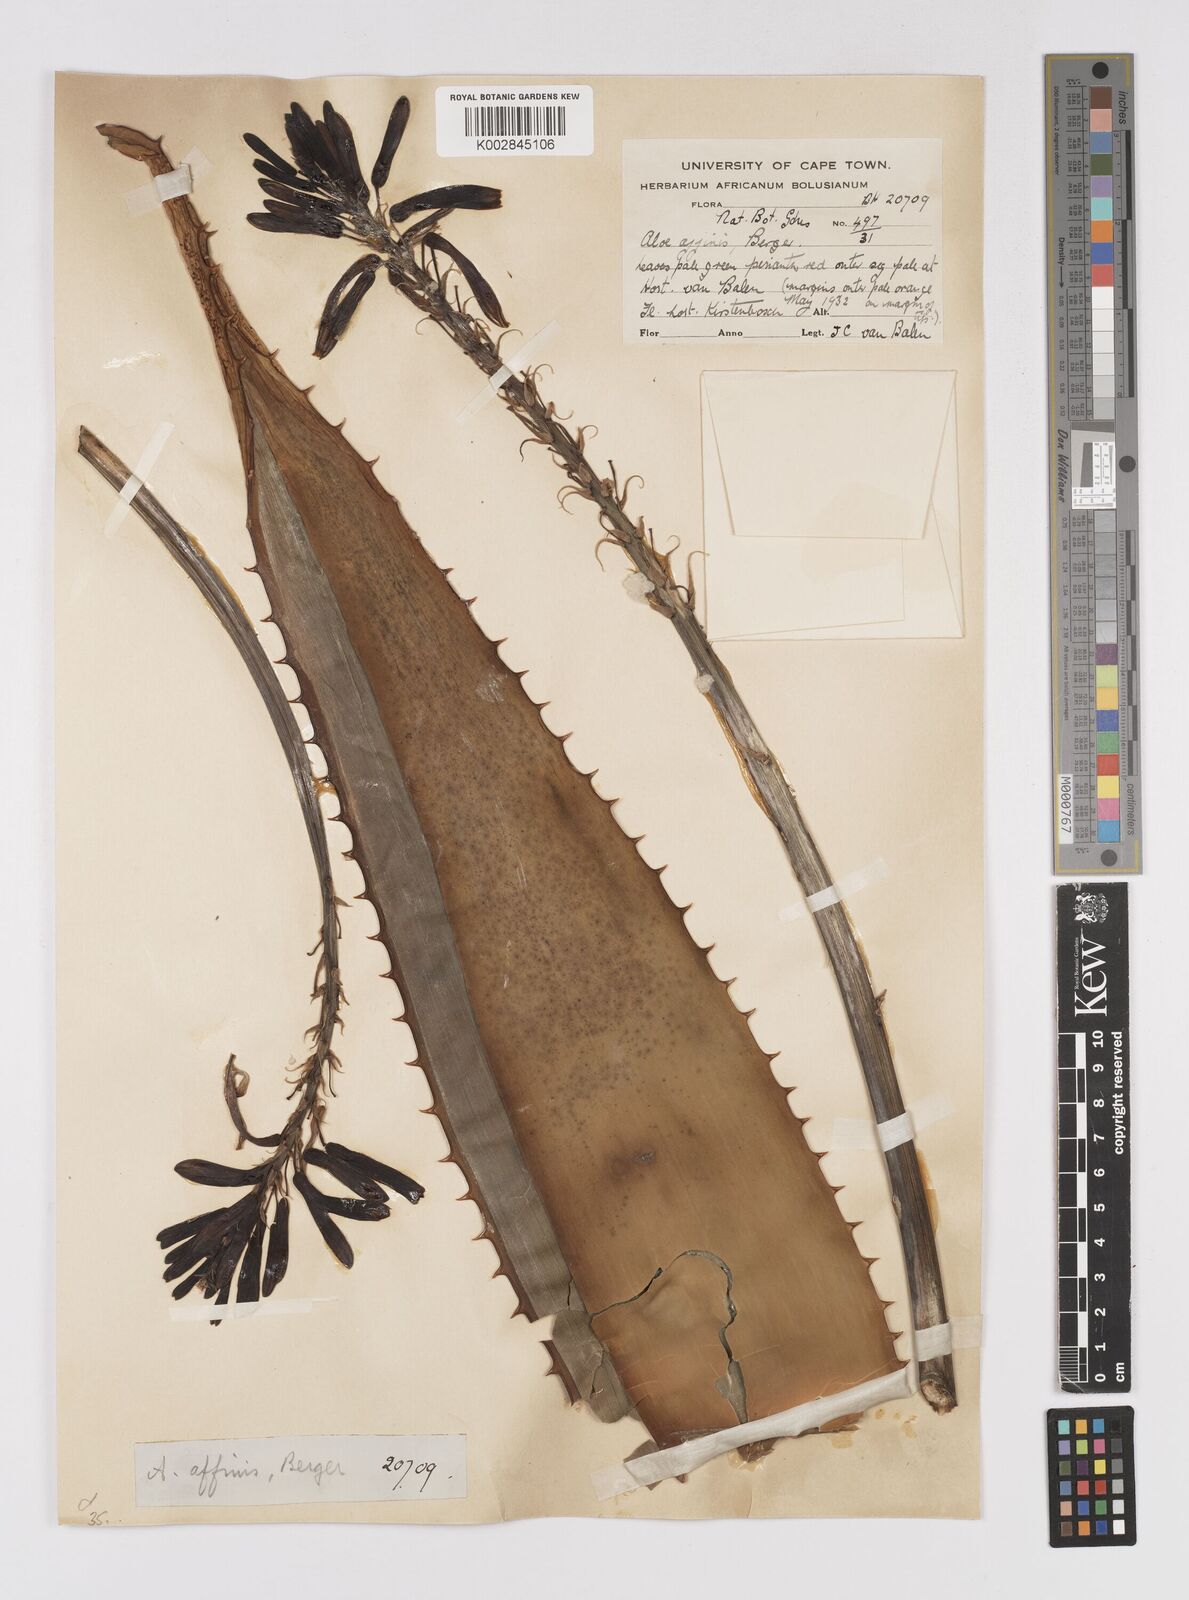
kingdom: Plantae
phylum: Tracheophyta
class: Liliopsida
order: Asparagales
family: Asphodelaceae
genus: Aloe
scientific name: Aloe affinis
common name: Spotted aloe
